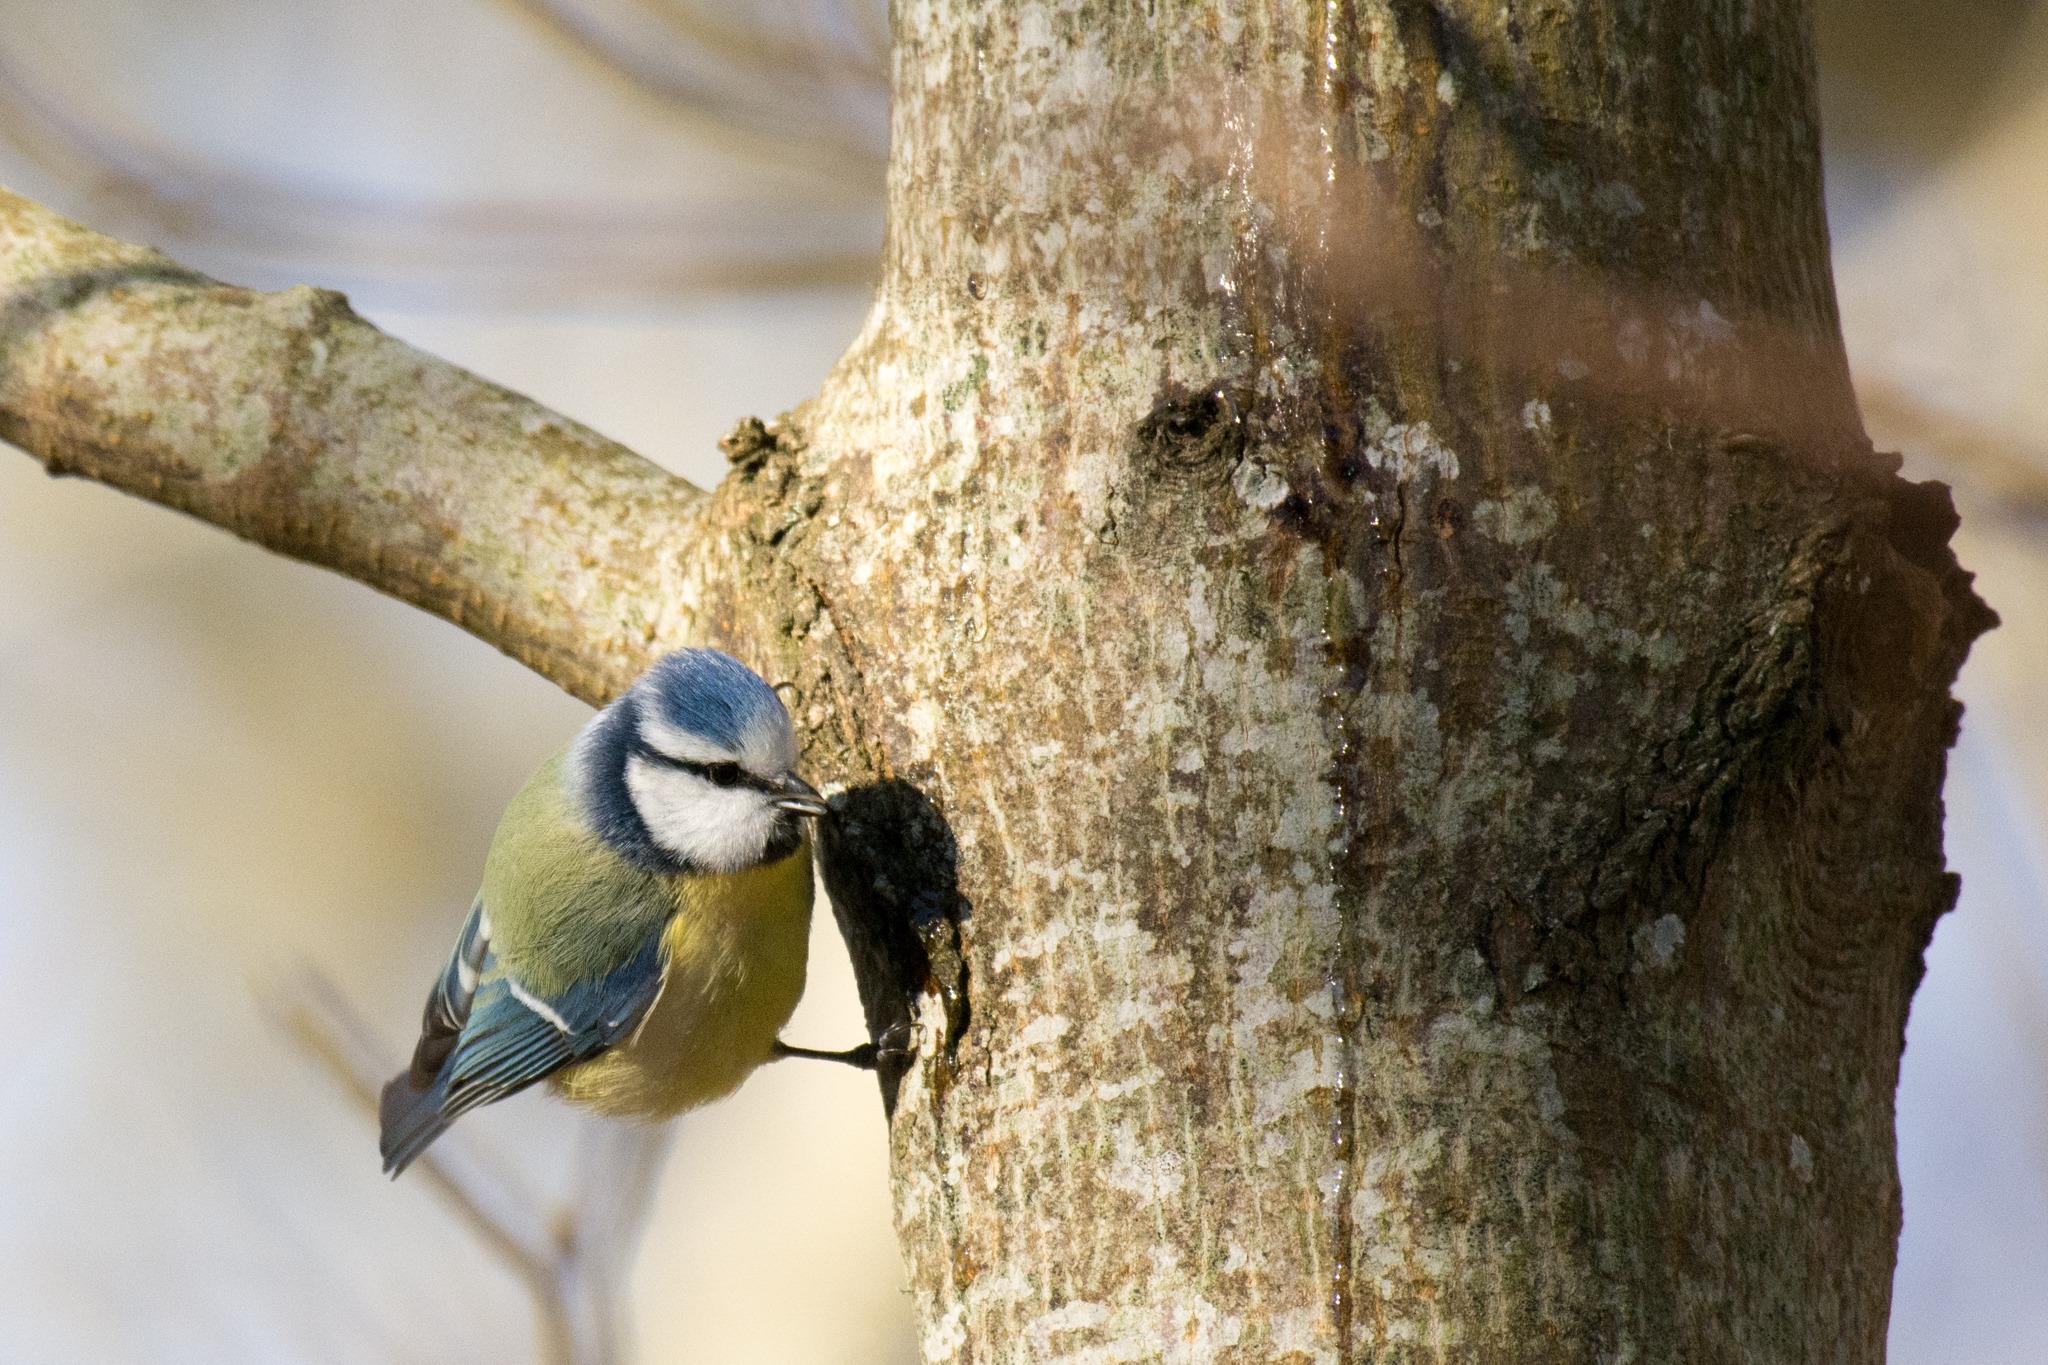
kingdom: Animalia
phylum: Chordata
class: Aves
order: Passeriformes
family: Paridae
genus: Cyanistes
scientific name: Cyanistes caeruleus
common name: Blåmejse
